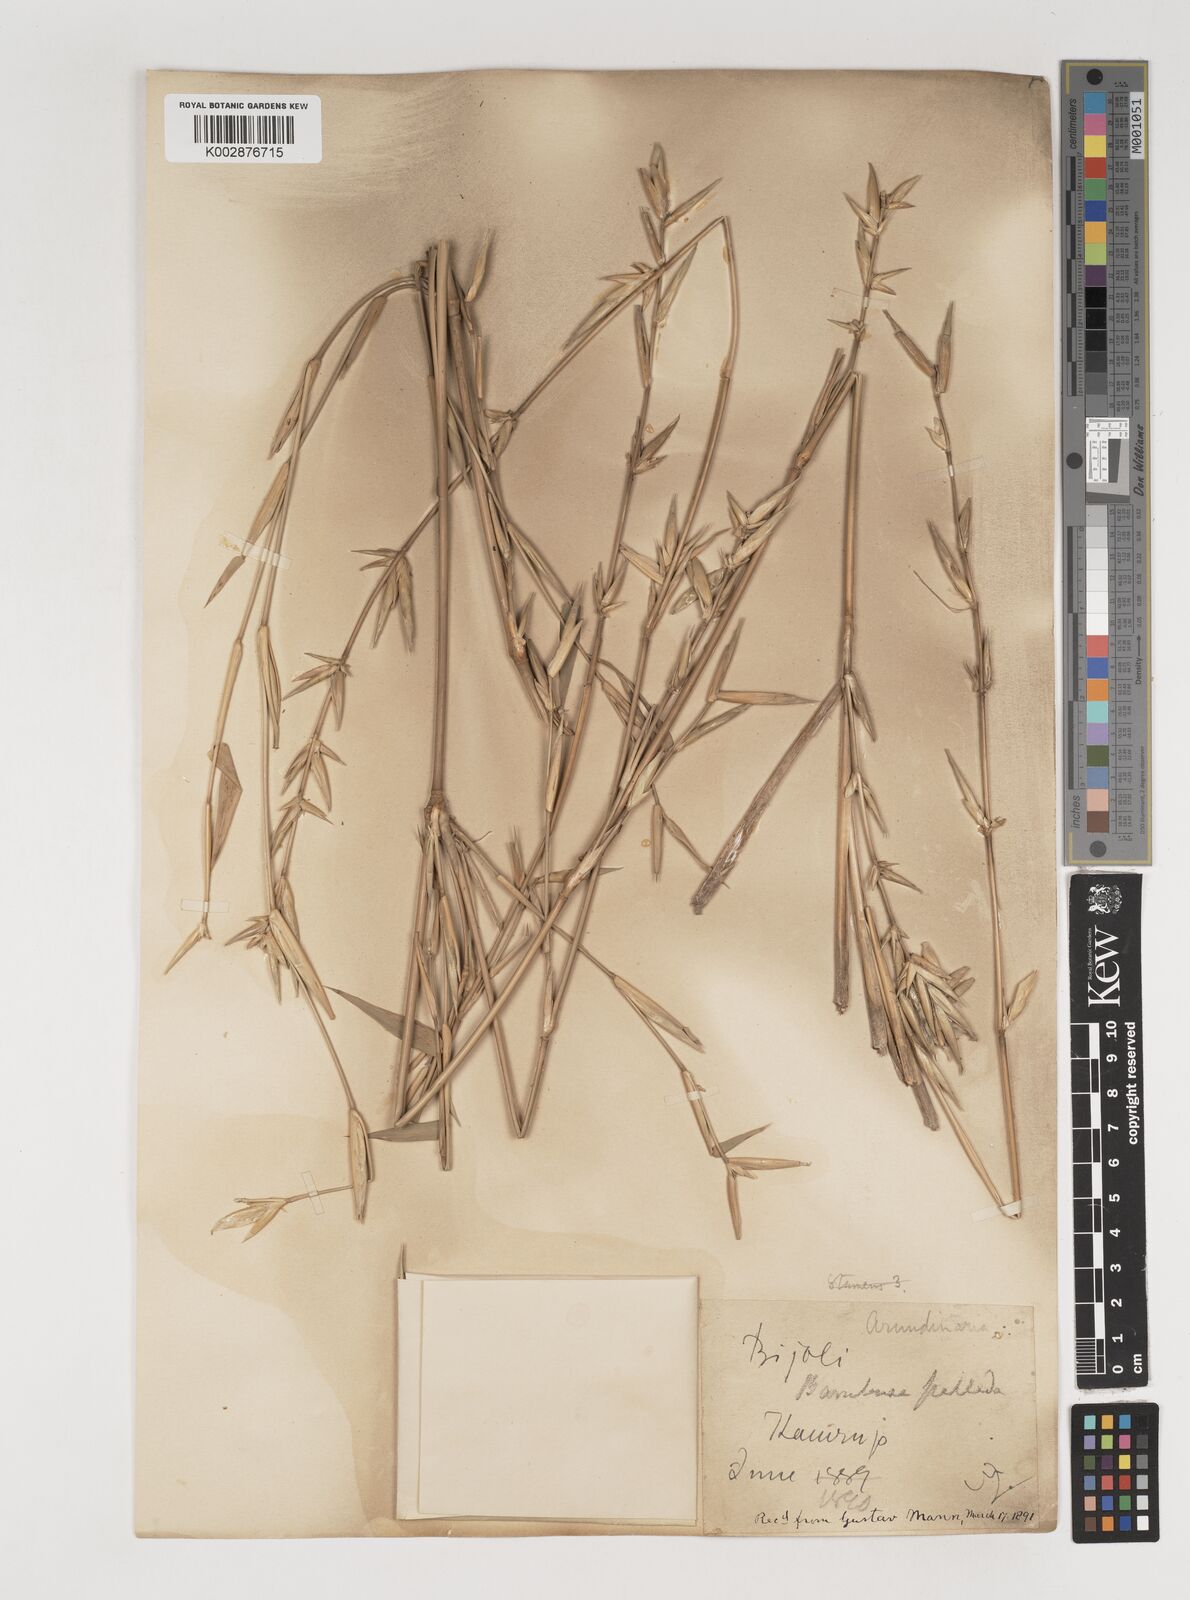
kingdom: Plantae
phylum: Tracheophyta
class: Liliopsida
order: Poales
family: Poaceae
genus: Bambusa
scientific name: Bambusa pallida
